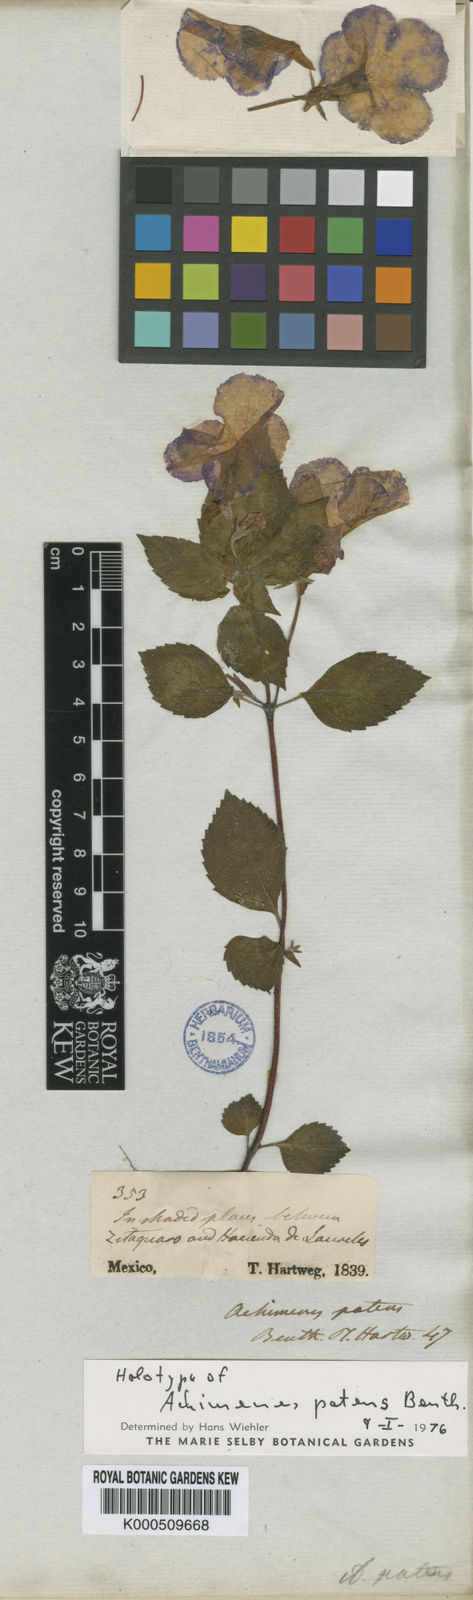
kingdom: Plantae
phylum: Tracheophyta
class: Magnoliopsida
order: Lamiales
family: Gesneriaceae
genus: Achimenes
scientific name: Achimenes patens
